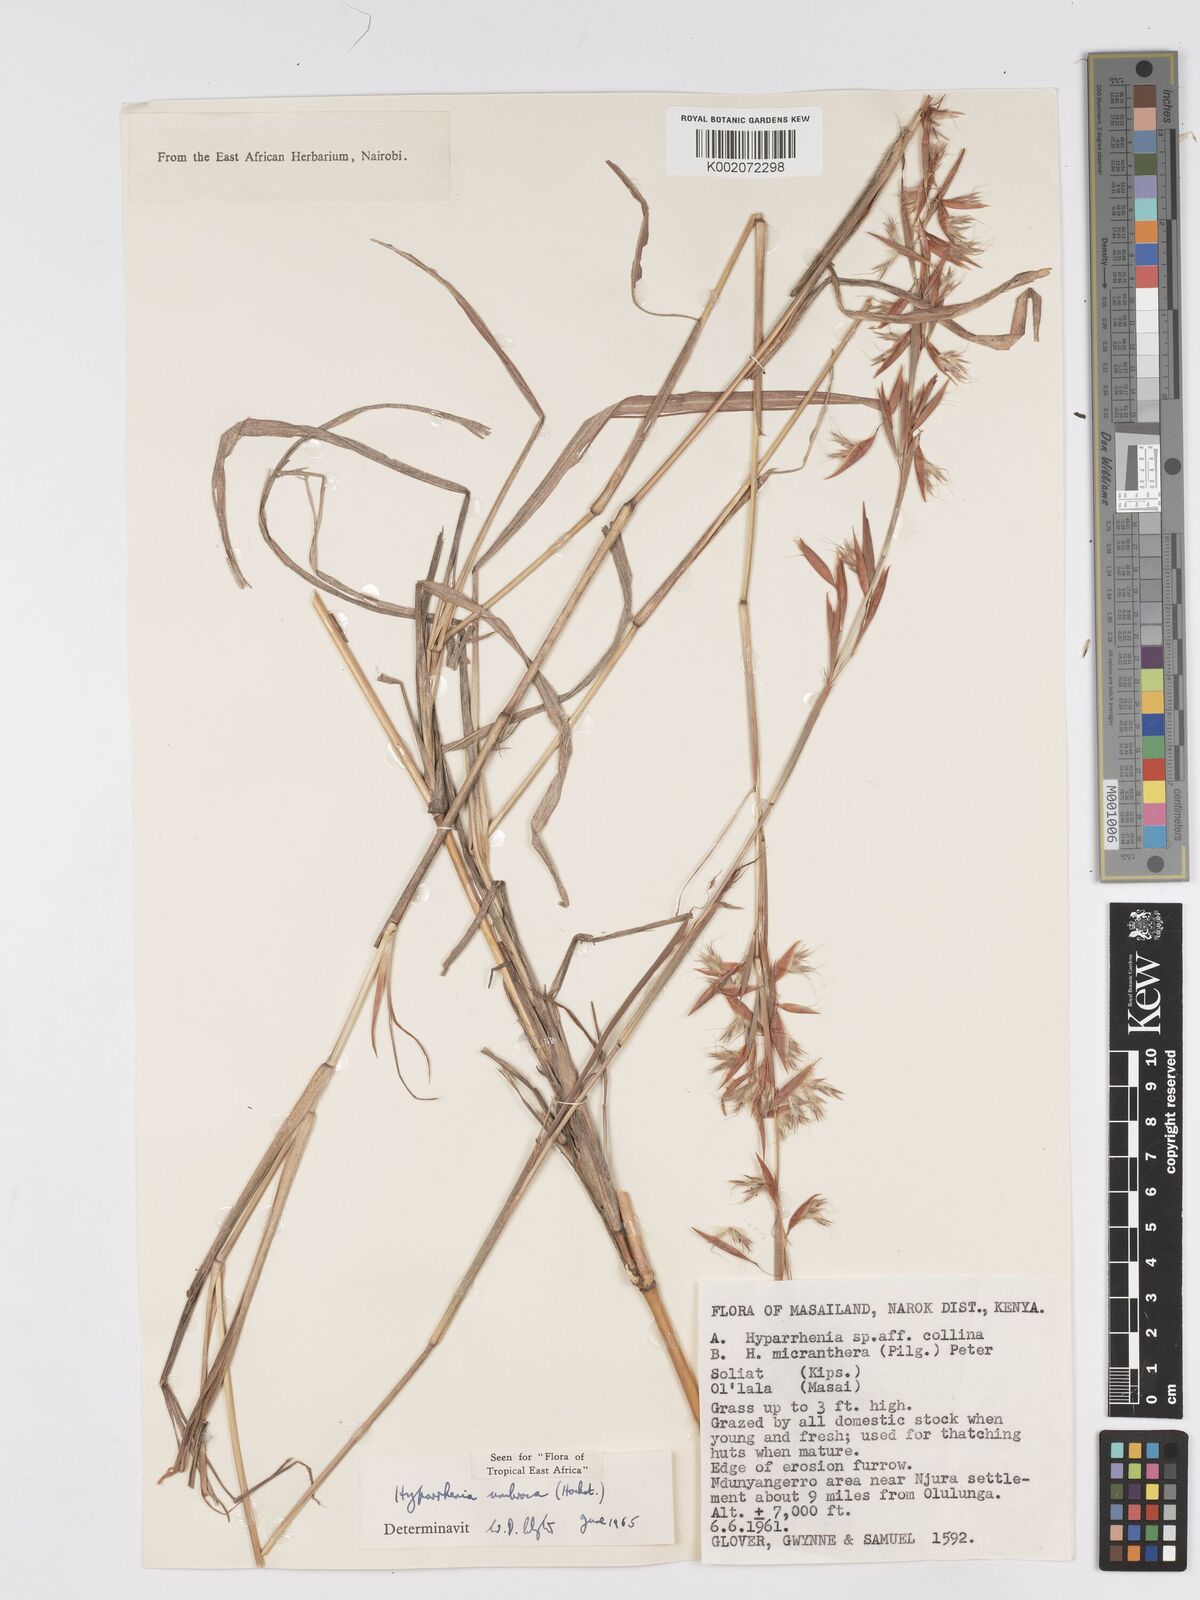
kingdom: Plantae
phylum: Tracheophyta
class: Liliopsida
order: Poales
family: Poaceae
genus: Hyparrhenia
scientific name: Hyparrhenia umbrosa
